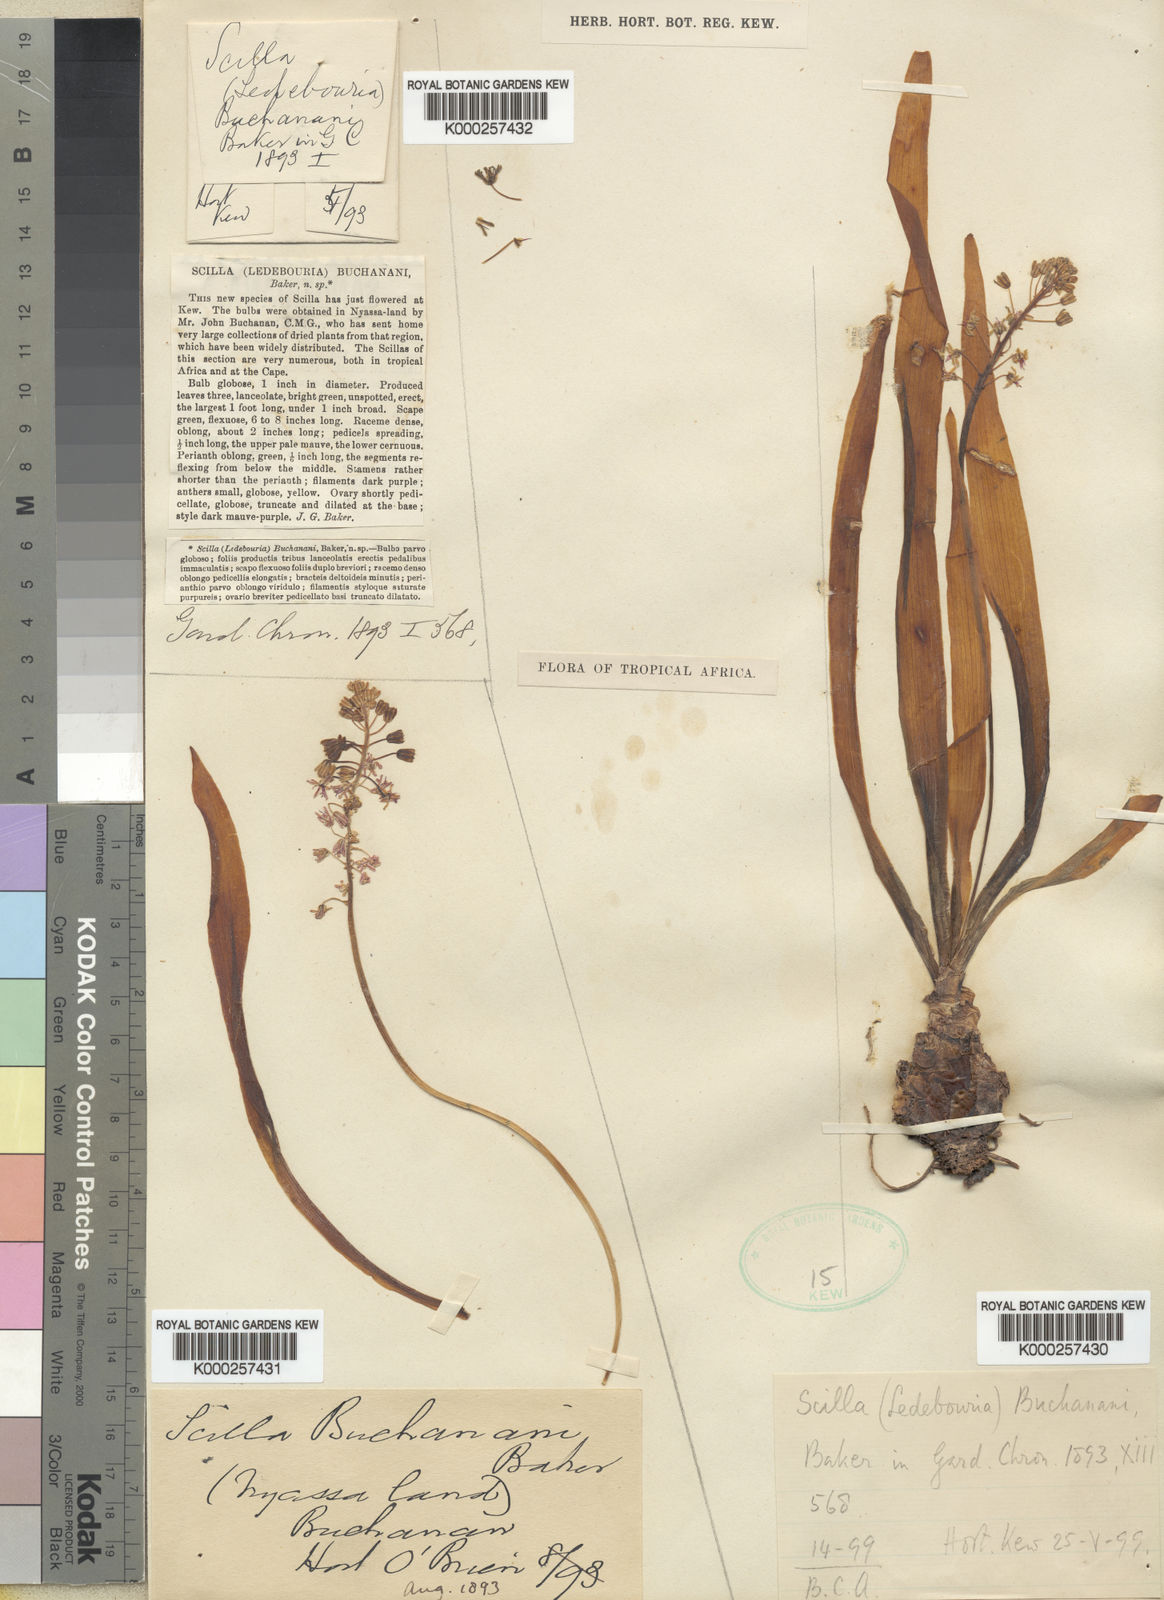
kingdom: Plantae
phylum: Tracheophyta
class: Liliopsida
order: Asparagales
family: Asparagaceae
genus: Scilla
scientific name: Scilla buchananii
